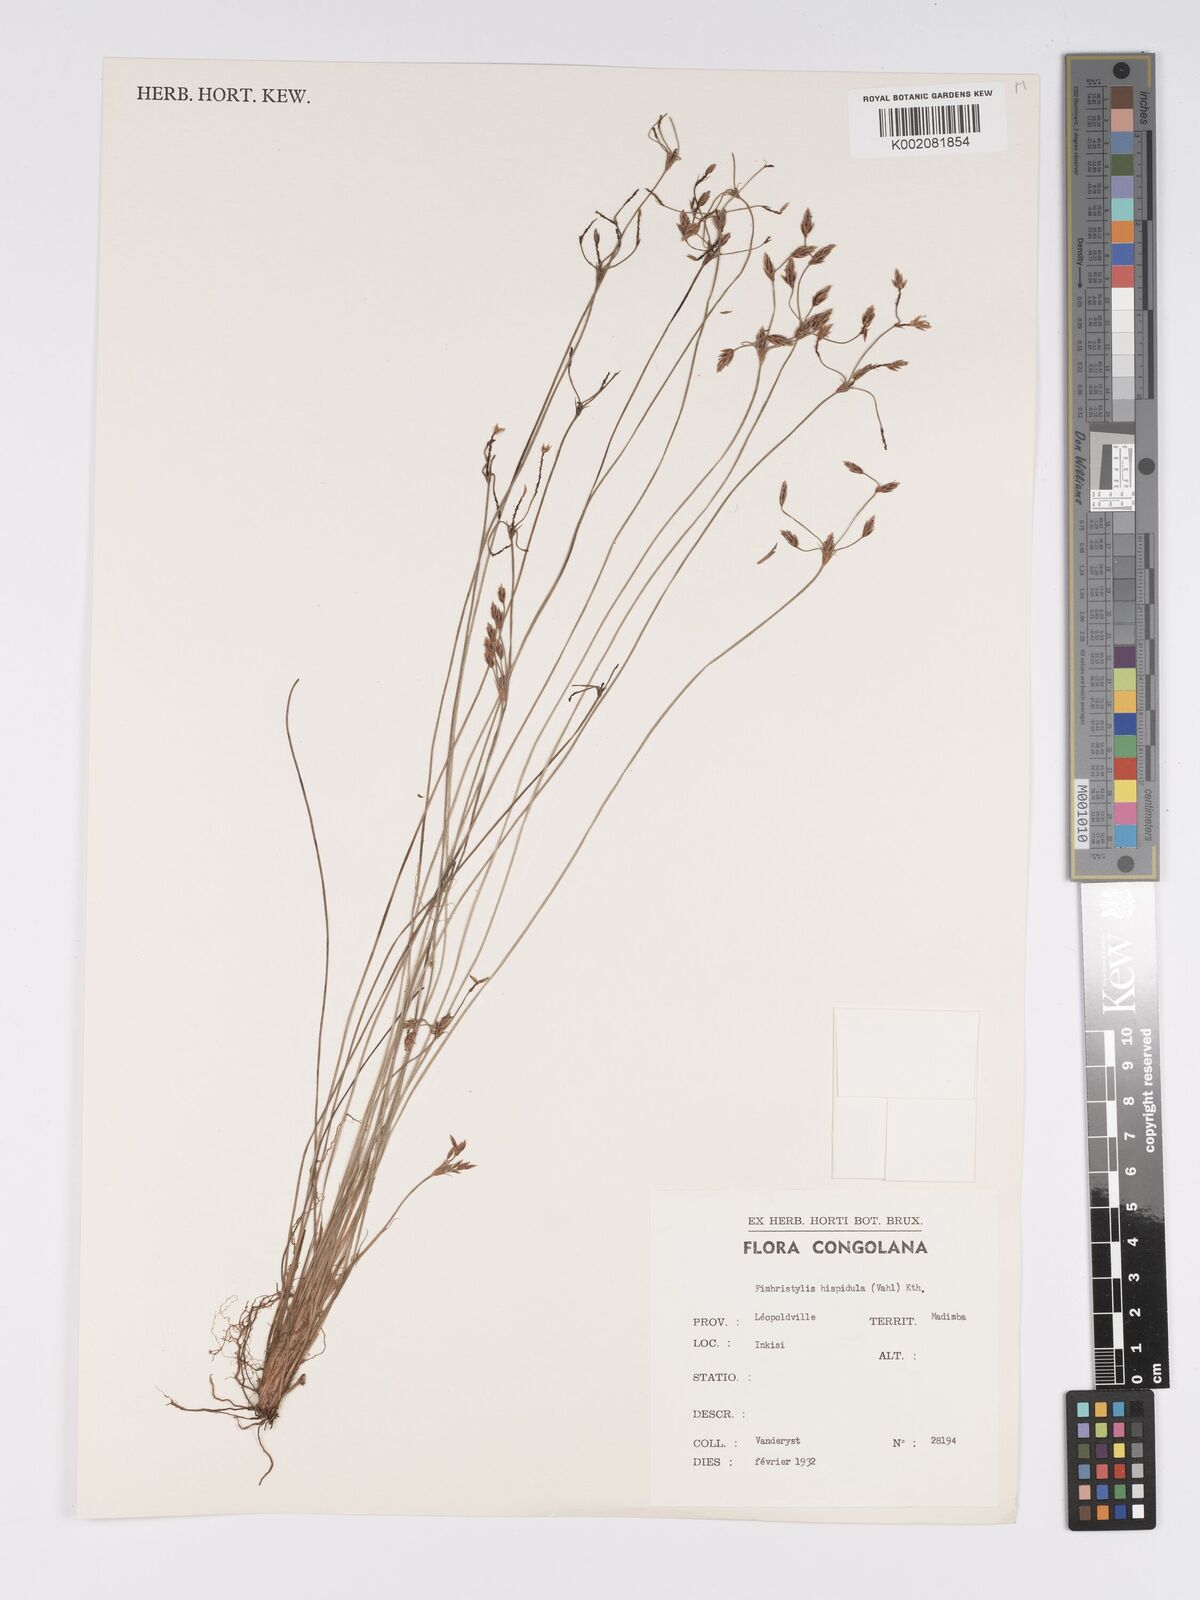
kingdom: Plantae
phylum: Tracheophyta
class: Liliopsida
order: Poales
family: Cyperaceae
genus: Bulbostylis
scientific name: Bulbostylis hispidula
